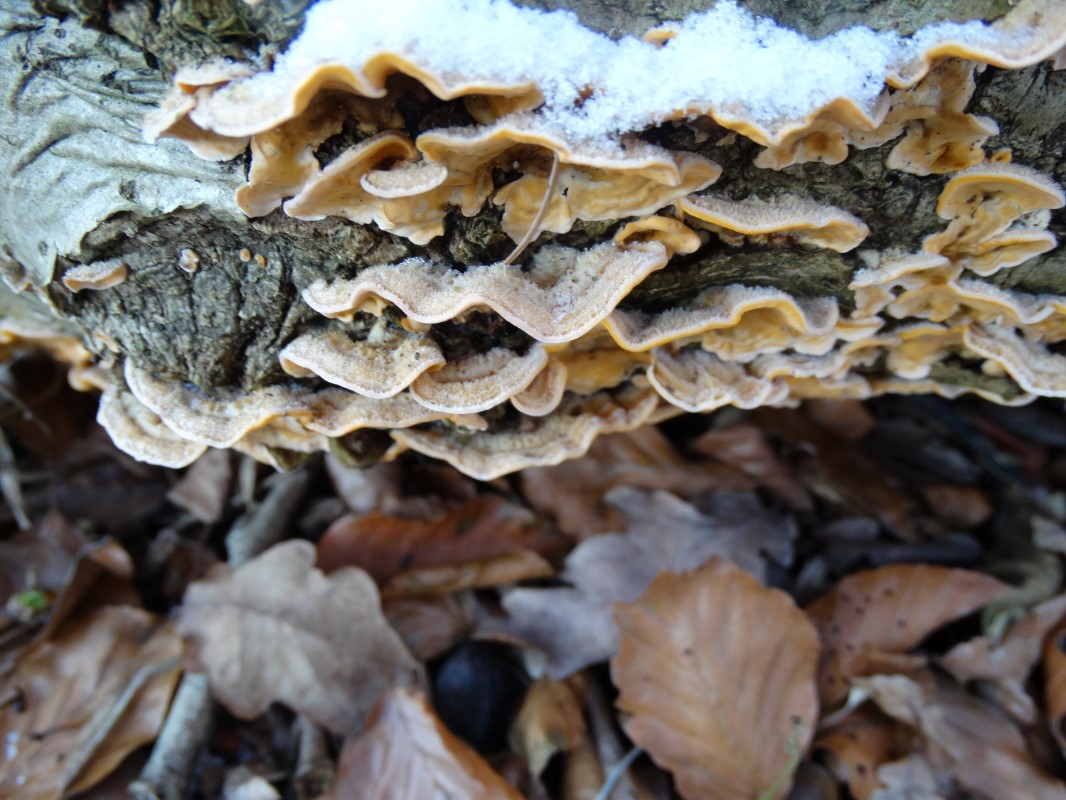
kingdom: Fungi
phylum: Basidiomycota
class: Agaricomycetes
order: Russulales
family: Stereaceae
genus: Stereum
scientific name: Stereum hirsutum
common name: håret lædersvamp
